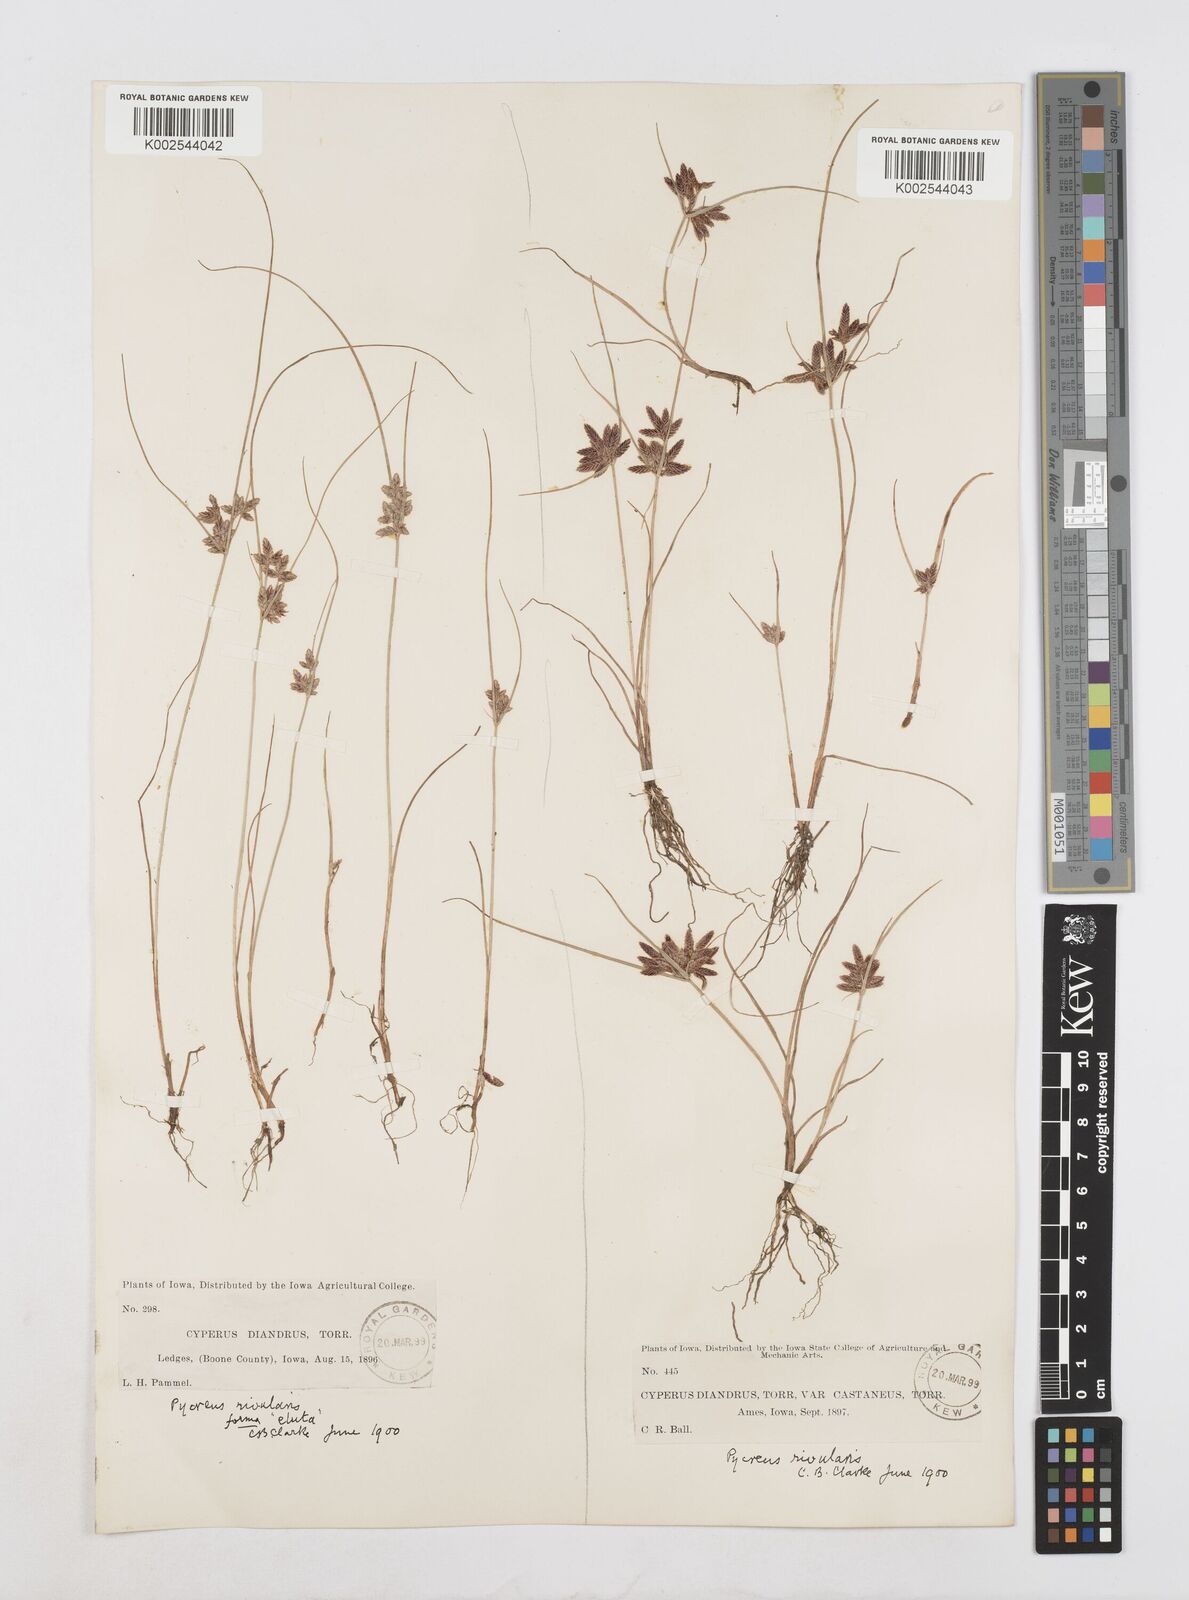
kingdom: Plantae
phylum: Tracheophyta
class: Liliopsida
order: Poales
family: Cyperaceae
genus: Cyperus
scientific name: Cyperus bipartitus
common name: Brook flatsedge
